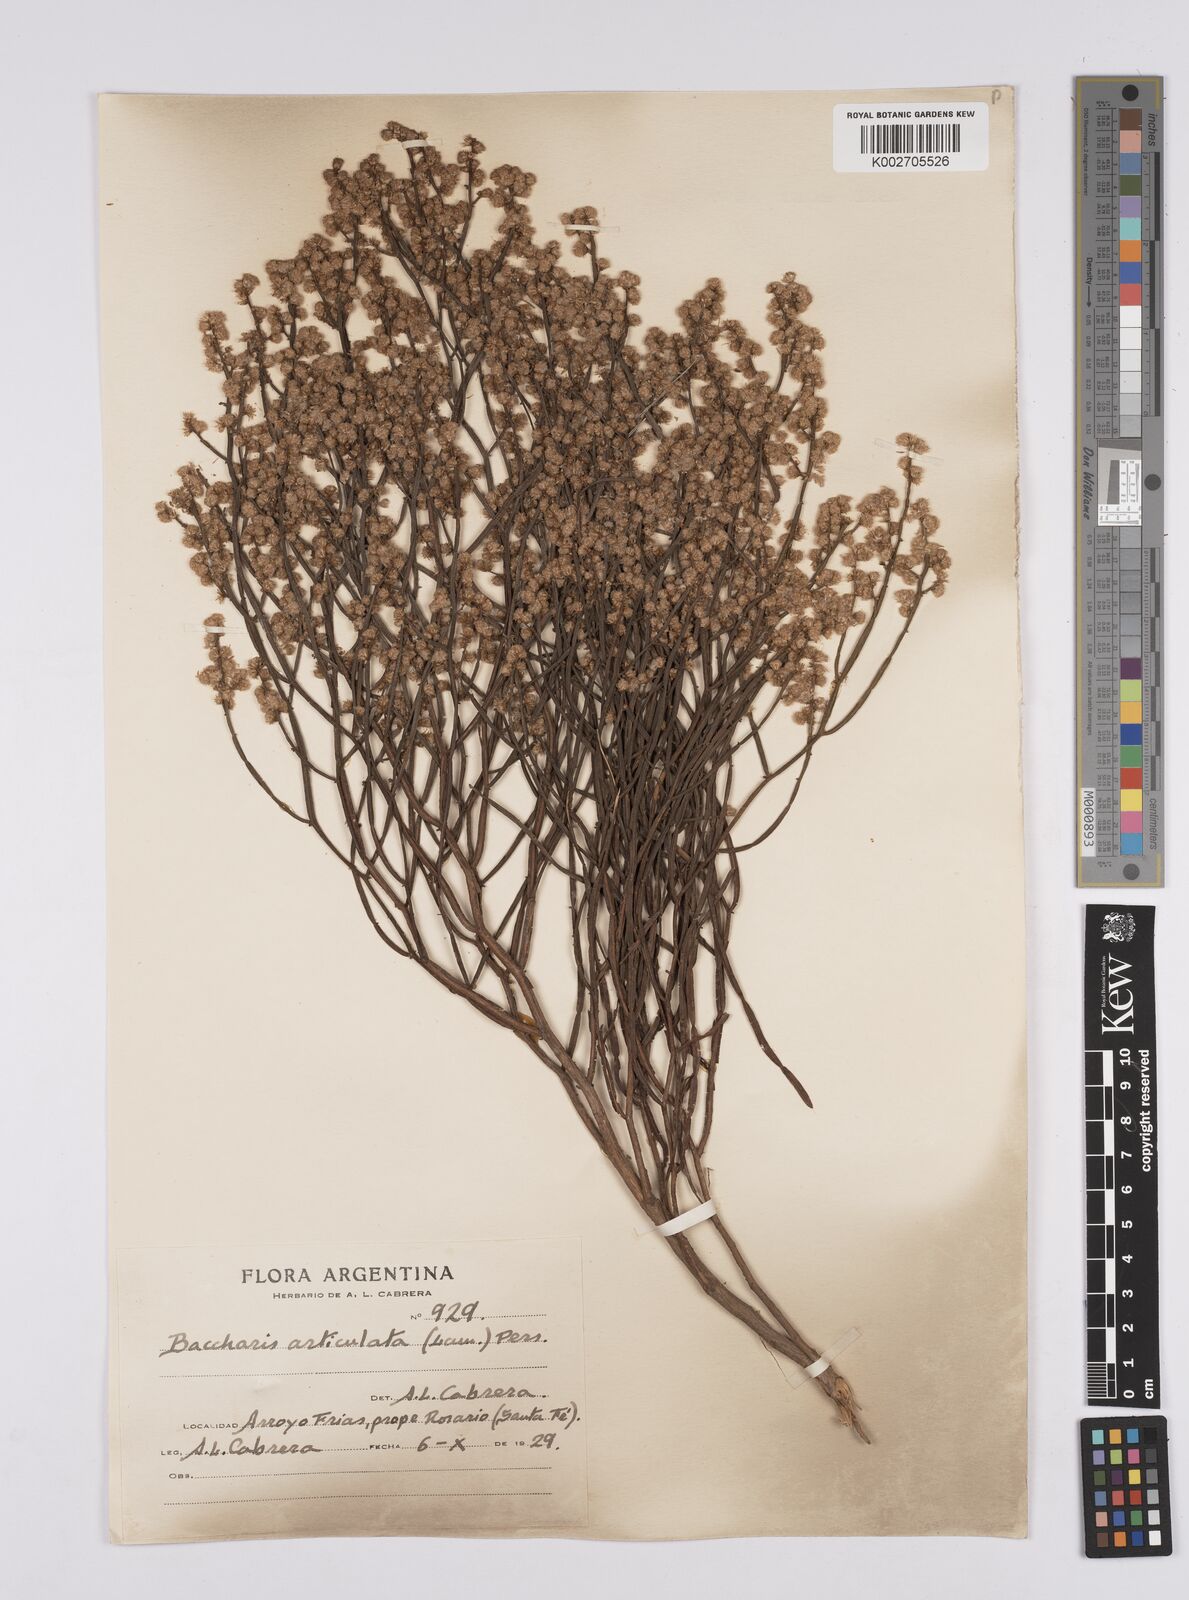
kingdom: Plantae
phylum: Tracheophyta
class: Magnoliopsida
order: Asterales
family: Asteraceae
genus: Baccharis
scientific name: Baccharis articulata
